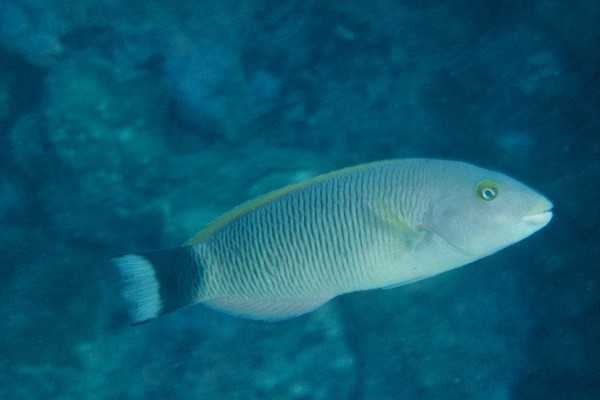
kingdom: Animalia
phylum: Chordata
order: Perciformes
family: Labridae
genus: Thalassoma
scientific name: Thalassoma ballieui
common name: Ballieu's wrasse
